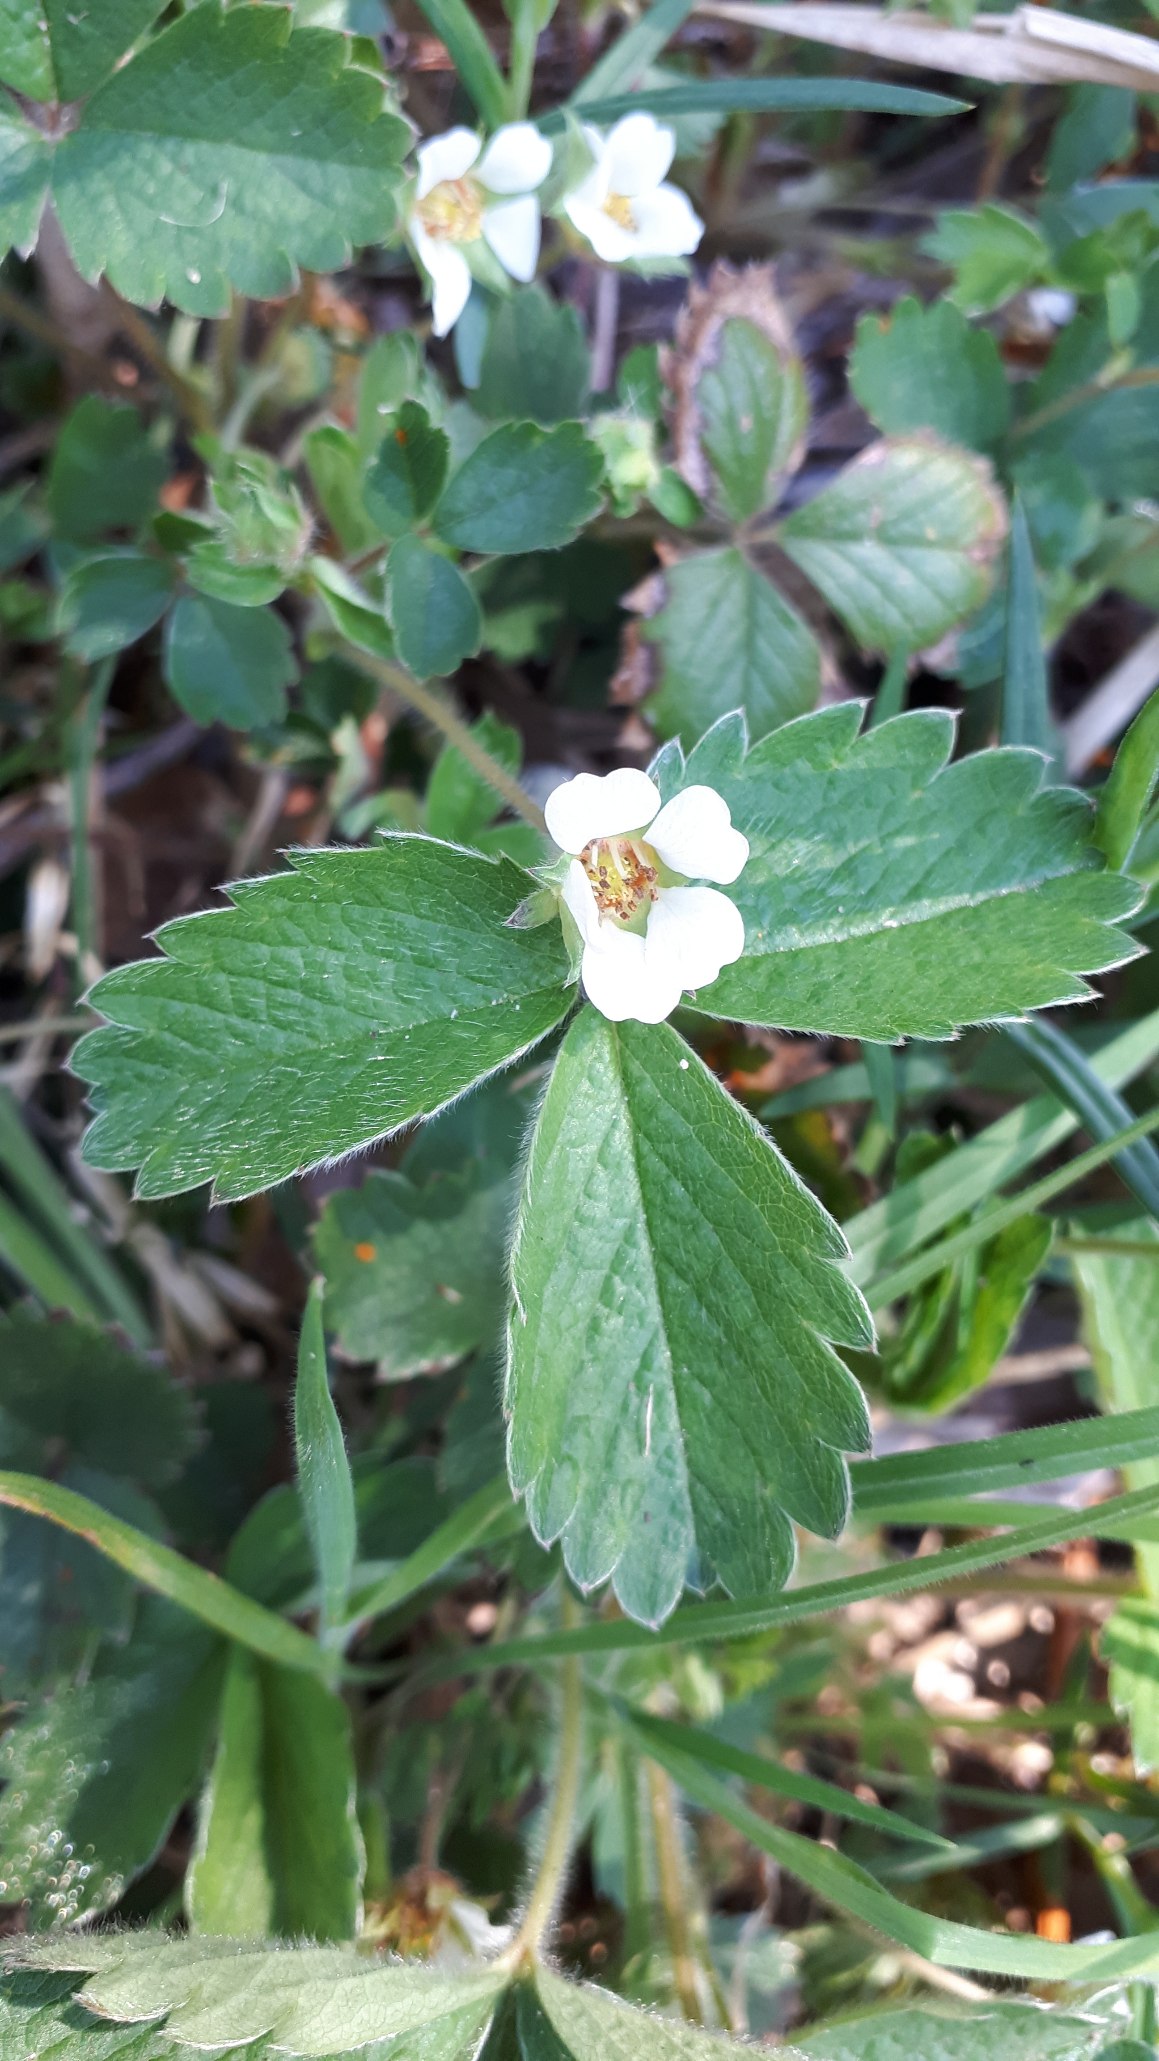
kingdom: Plantae
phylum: Tracheophyta
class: Magnoliopsida
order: Rosales
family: Rosaceae
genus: Potentilla
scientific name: Potentilla sterilis
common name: Jordbær-potentil
